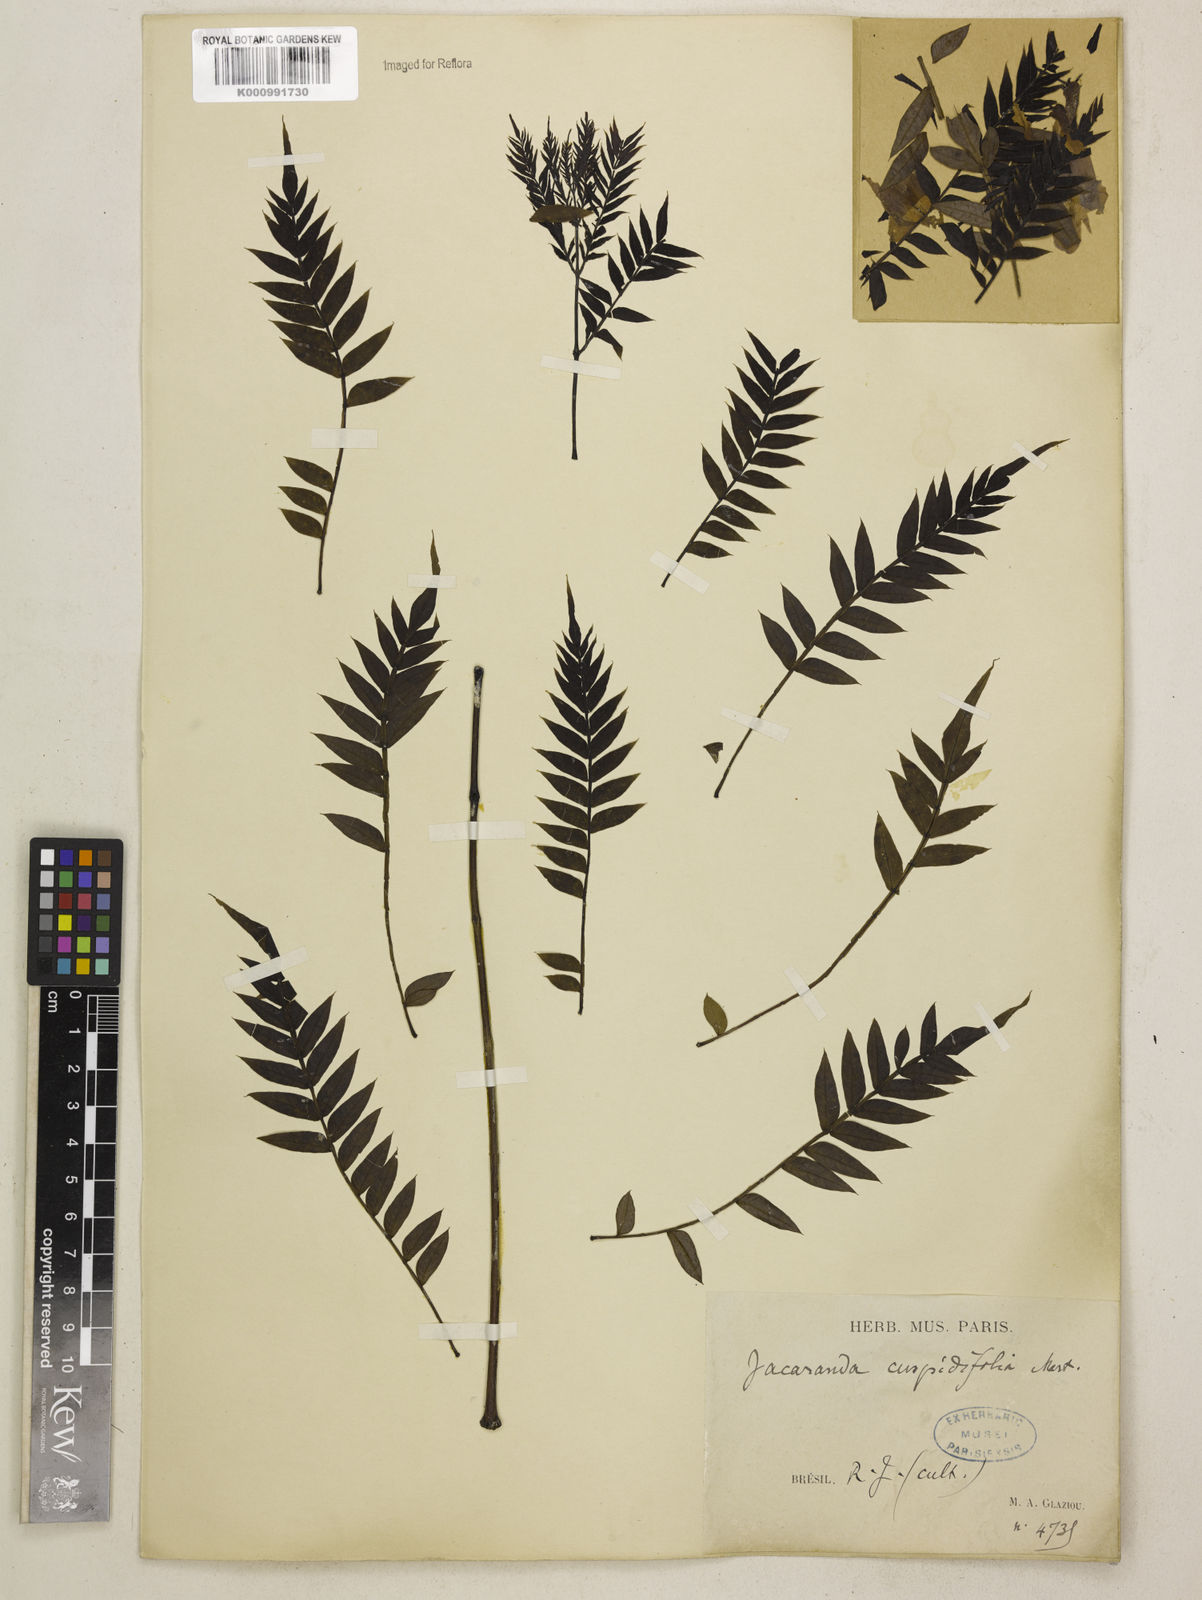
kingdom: Plantae
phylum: Tracheophyta
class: Magnoliopsida
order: Lamiales
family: Bignoniaceae
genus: Jacaranda
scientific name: Jacaranda cuspidifolia
